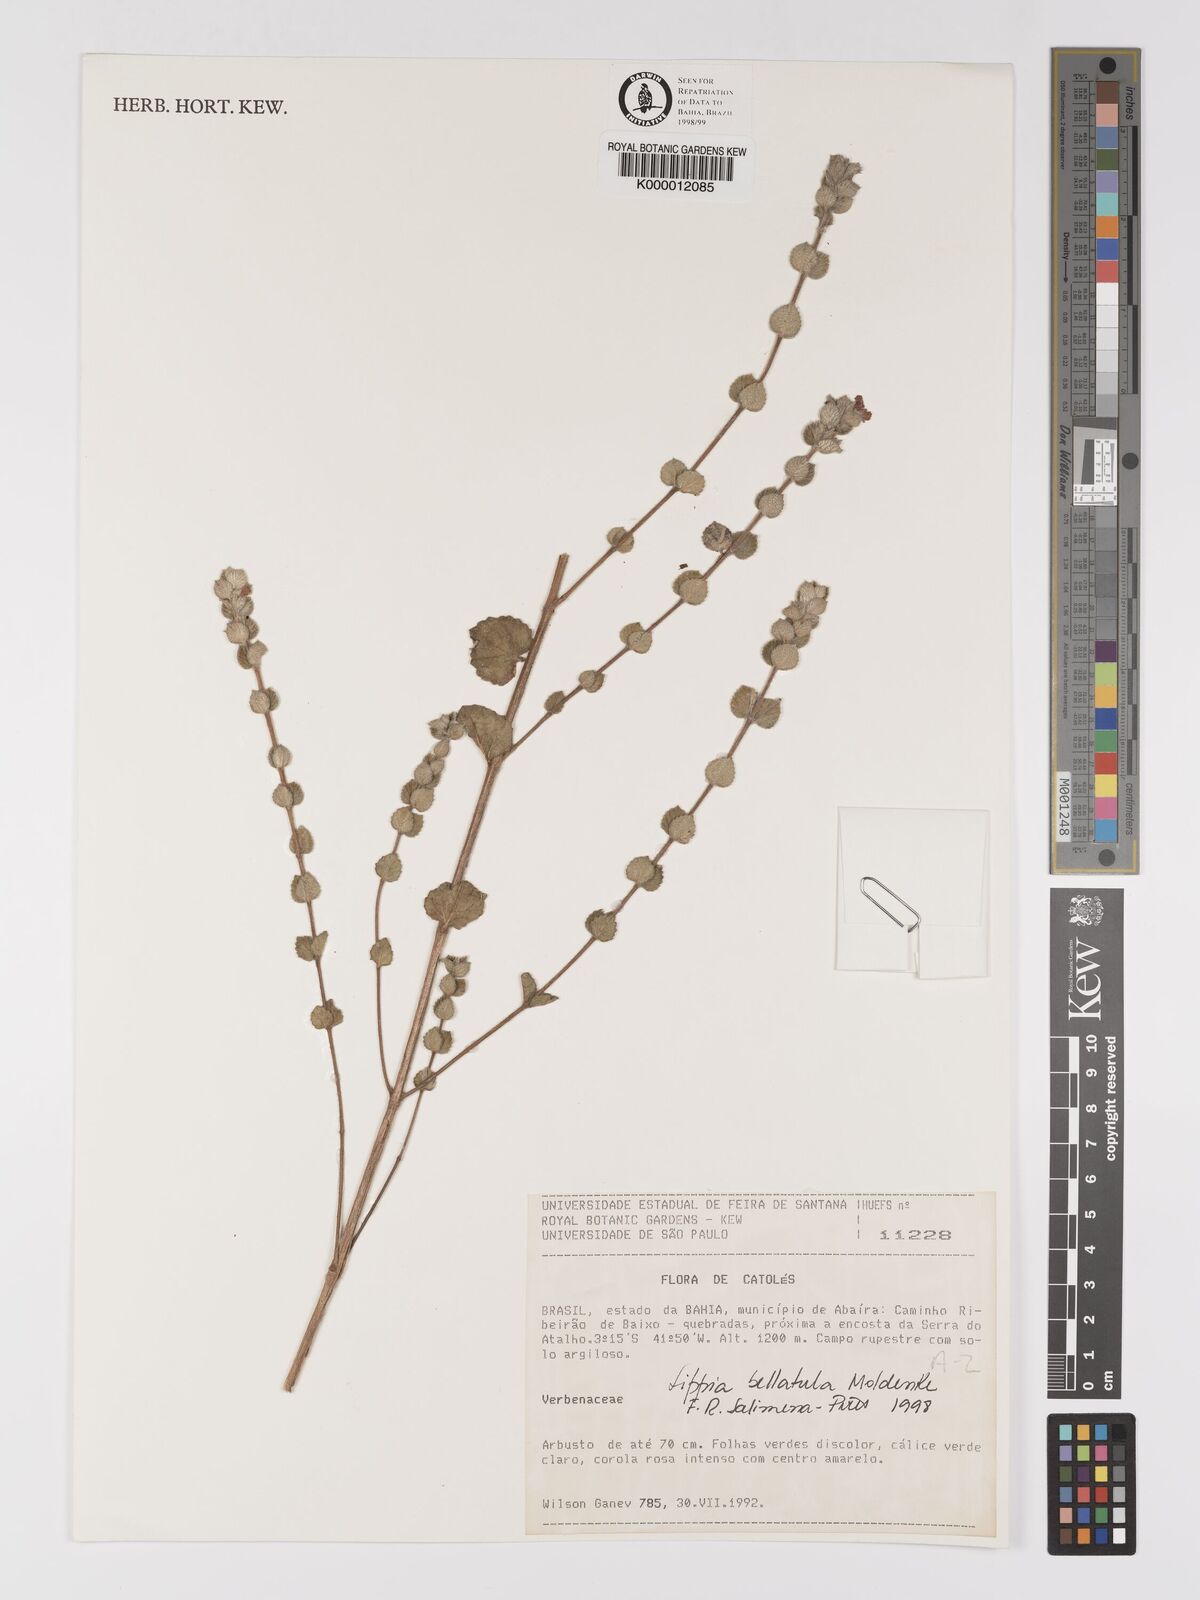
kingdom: Plantae
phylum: Tracheophyta
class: Magnoliopsida
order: Lamiales
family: Verbenaceae
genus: Lippia
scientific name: Lippia bellatula
